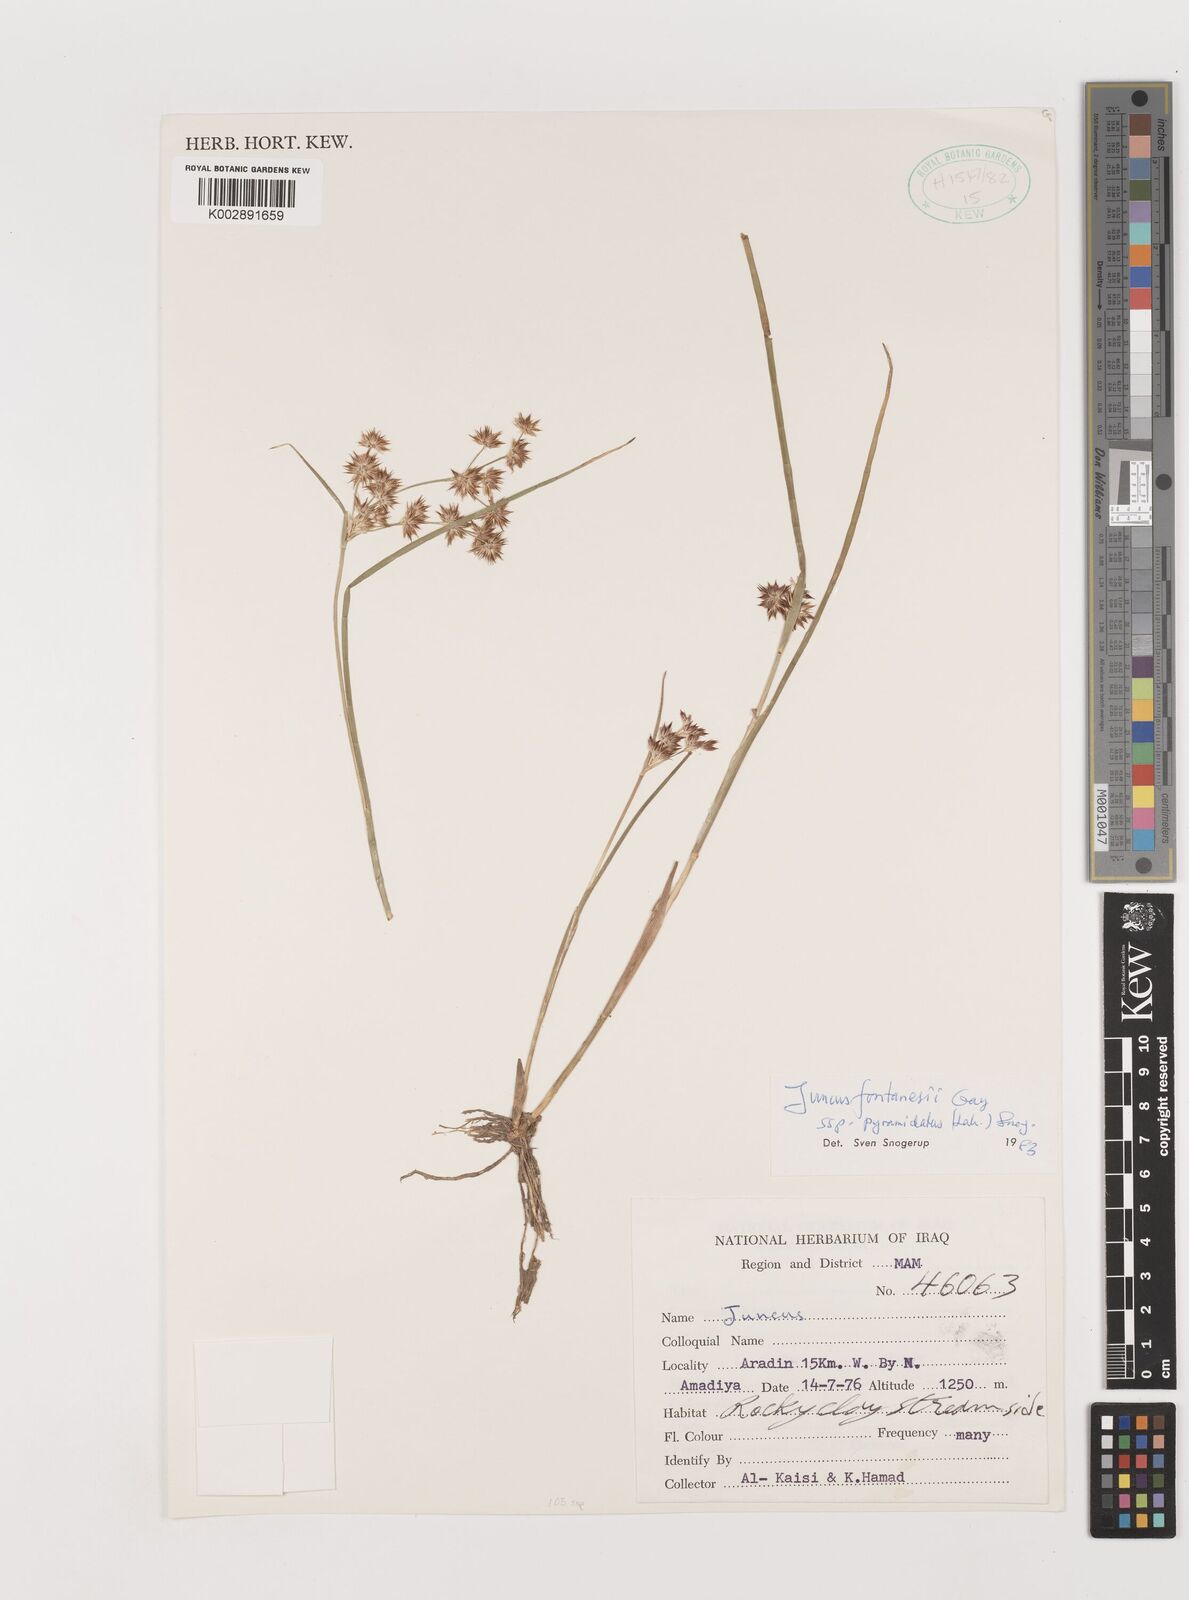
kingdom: Plantae
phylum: Tracheophyta
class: Liliopsida
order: Poales
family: Juncaceae
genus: Juncus
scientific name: Juncus fontanesii
